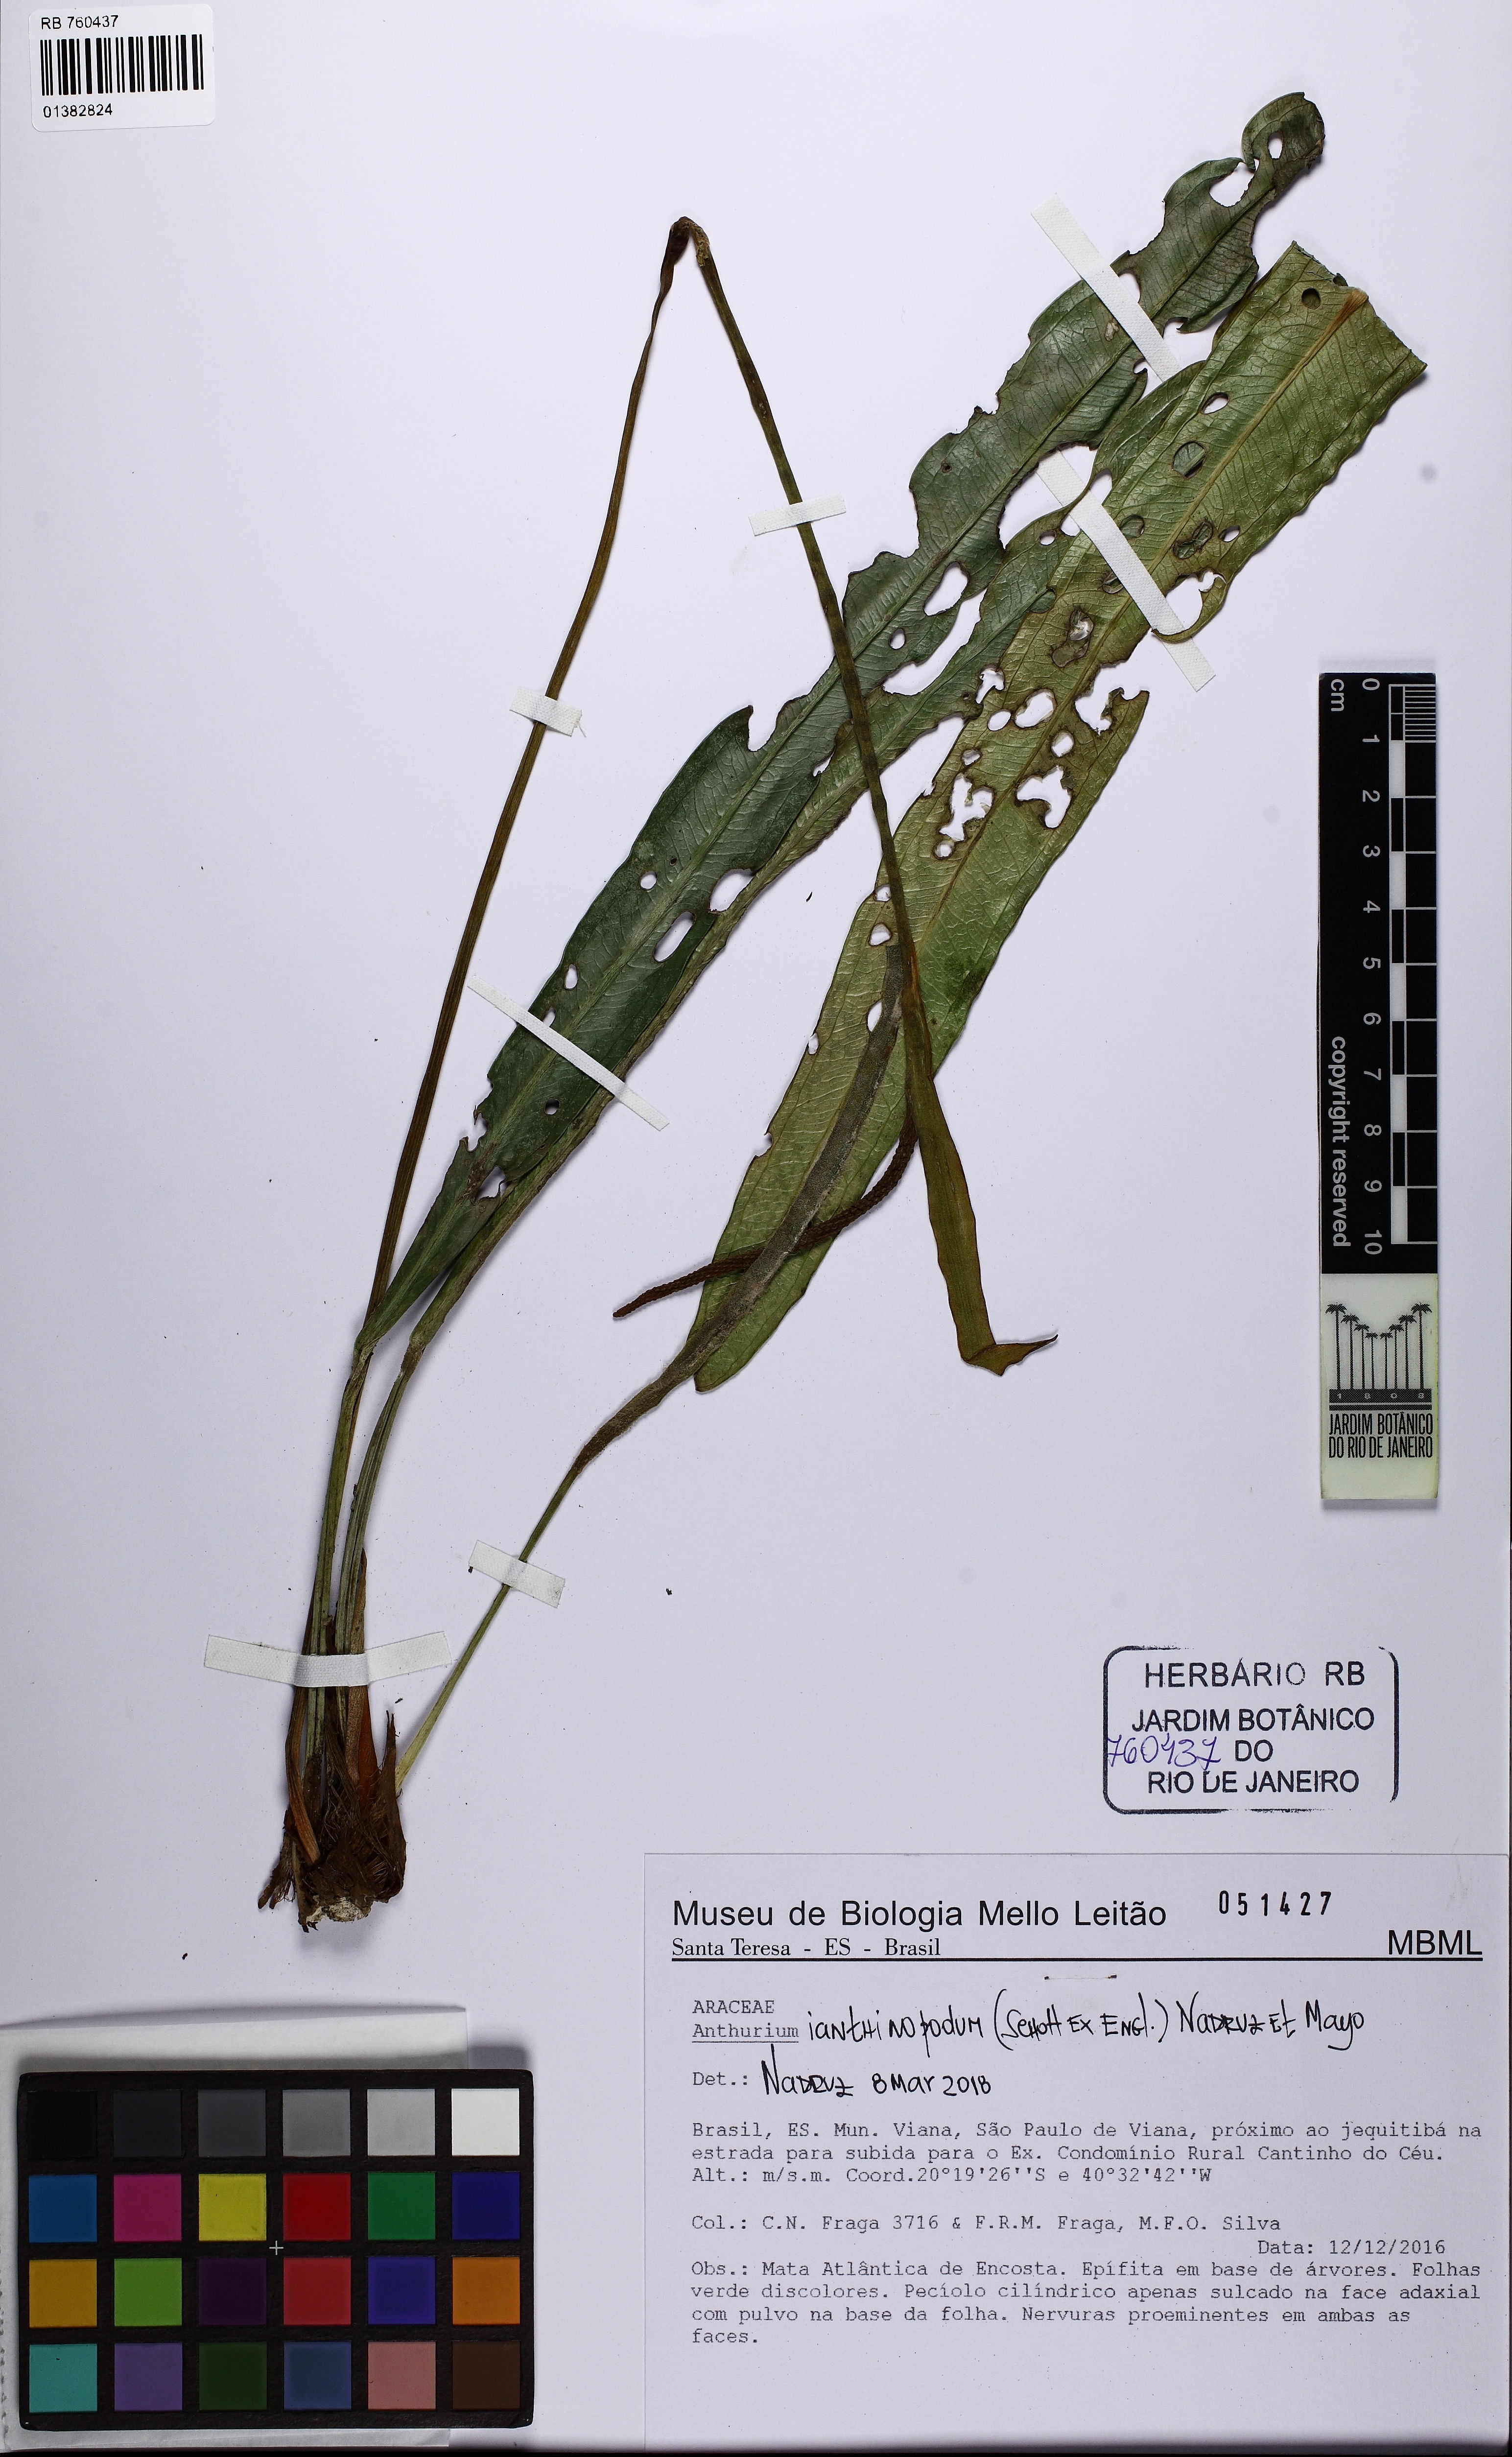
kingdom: Plantae
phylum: Tracheophyta
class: Liliopsida
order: Alismatales
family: Araceae
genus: Anthurium
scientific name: Anthurium ianthinopodum
